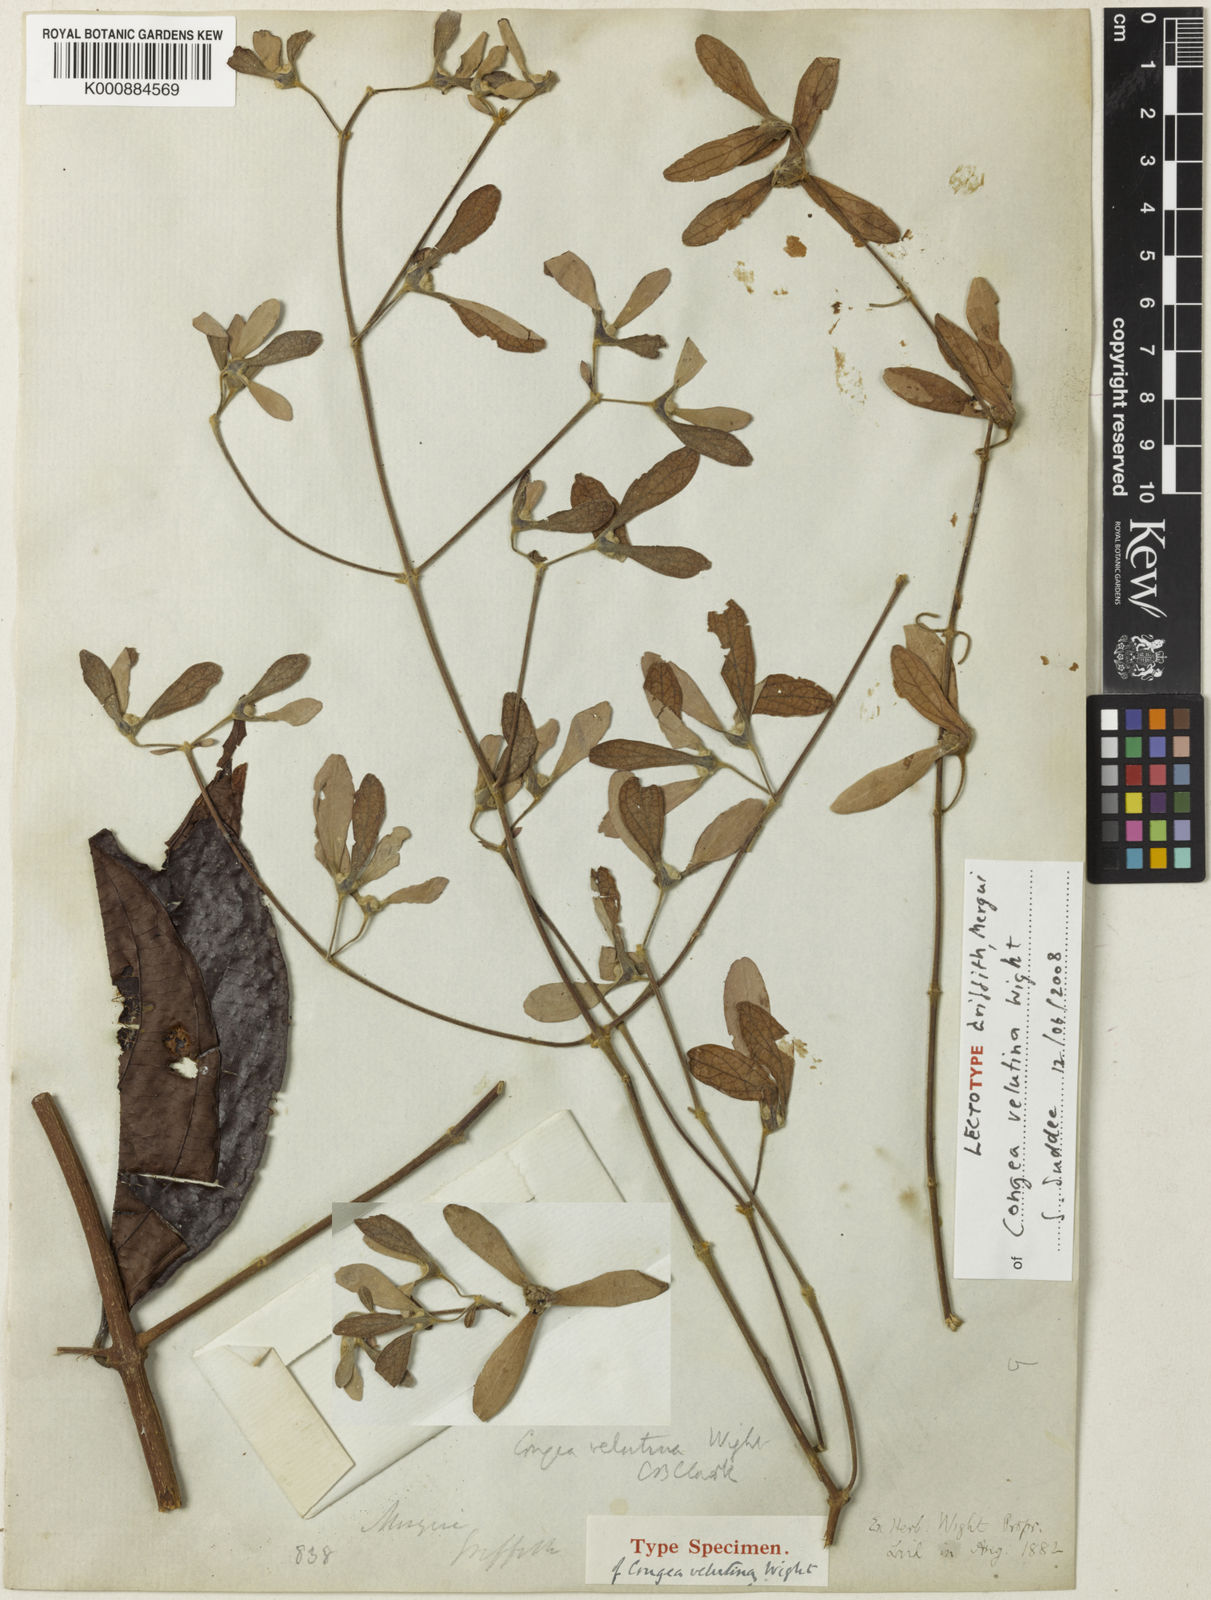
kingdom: Plantae
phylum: Tracheophyta
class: Magnoliopsida
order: Lamiales
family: Lamiaceae
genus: Congea
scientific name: Congea velutina
